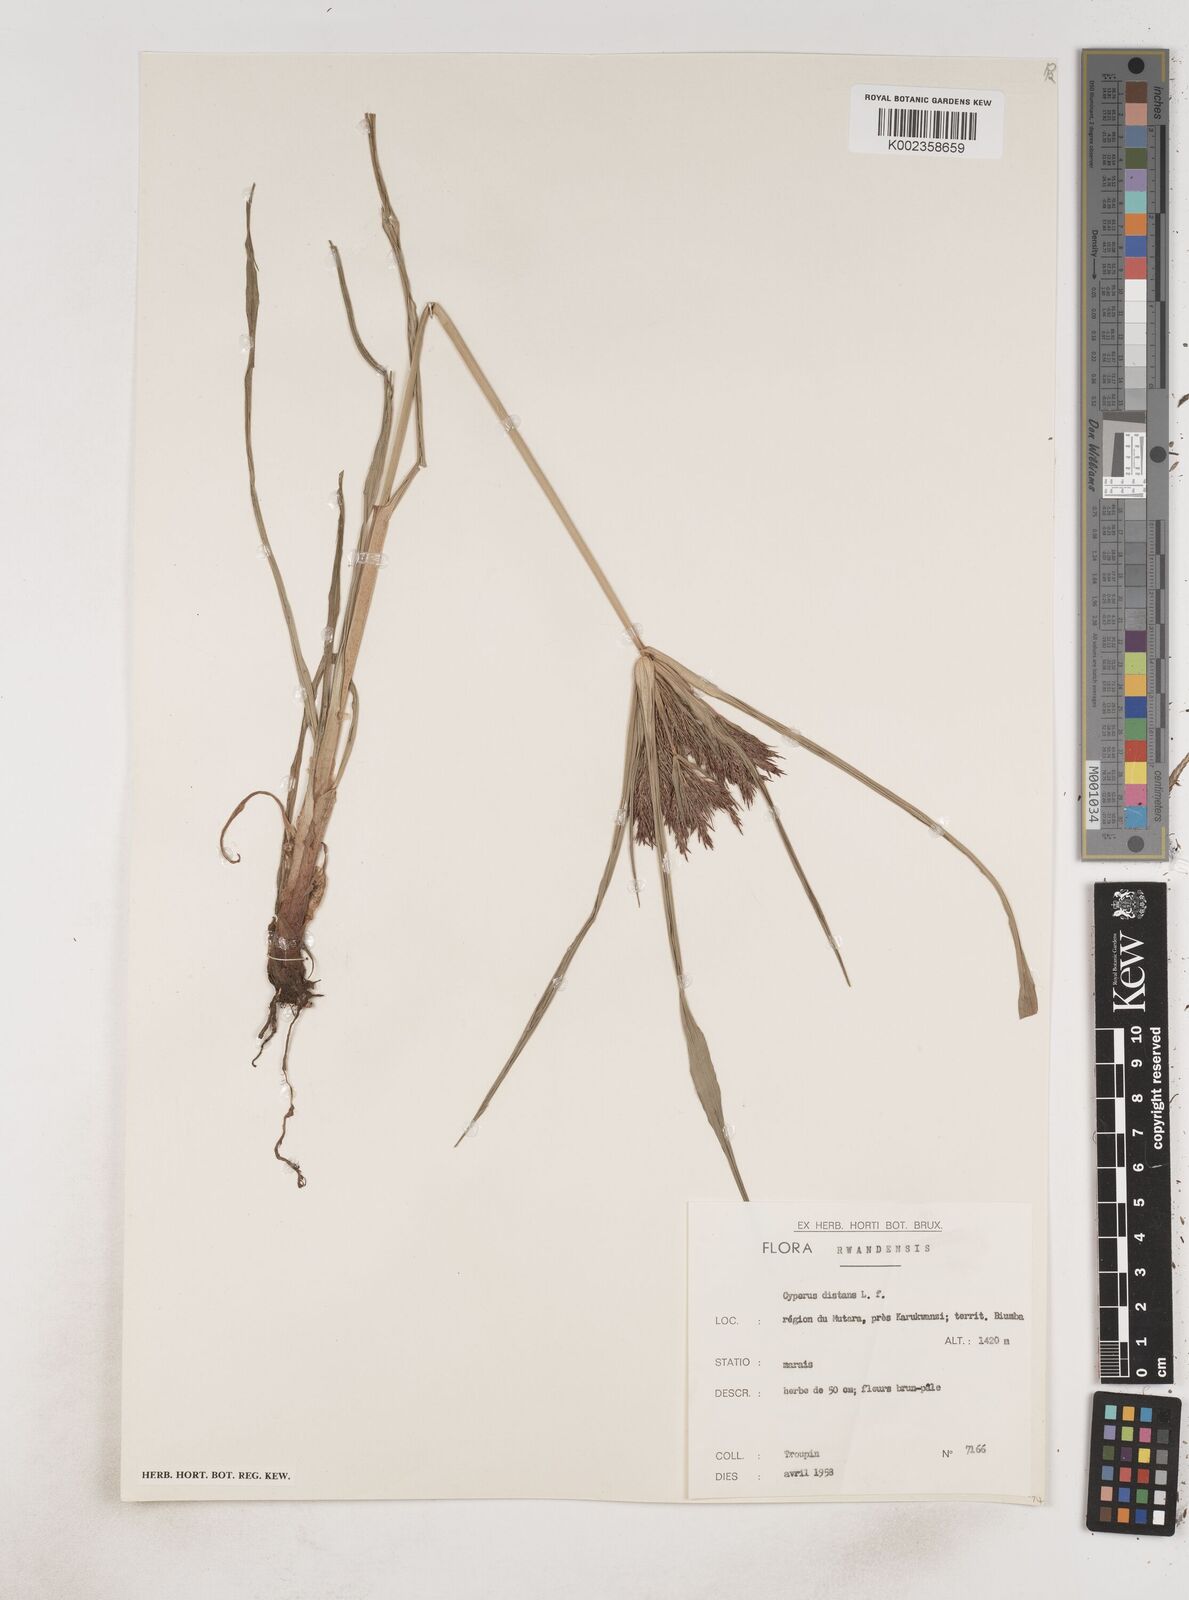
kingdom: Plantae
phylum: Tracheophyta
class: Liliopsida
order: Poales
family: Cyperaceae
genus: Cyperus
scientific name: Cyperus distans
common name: Slender cyperus
